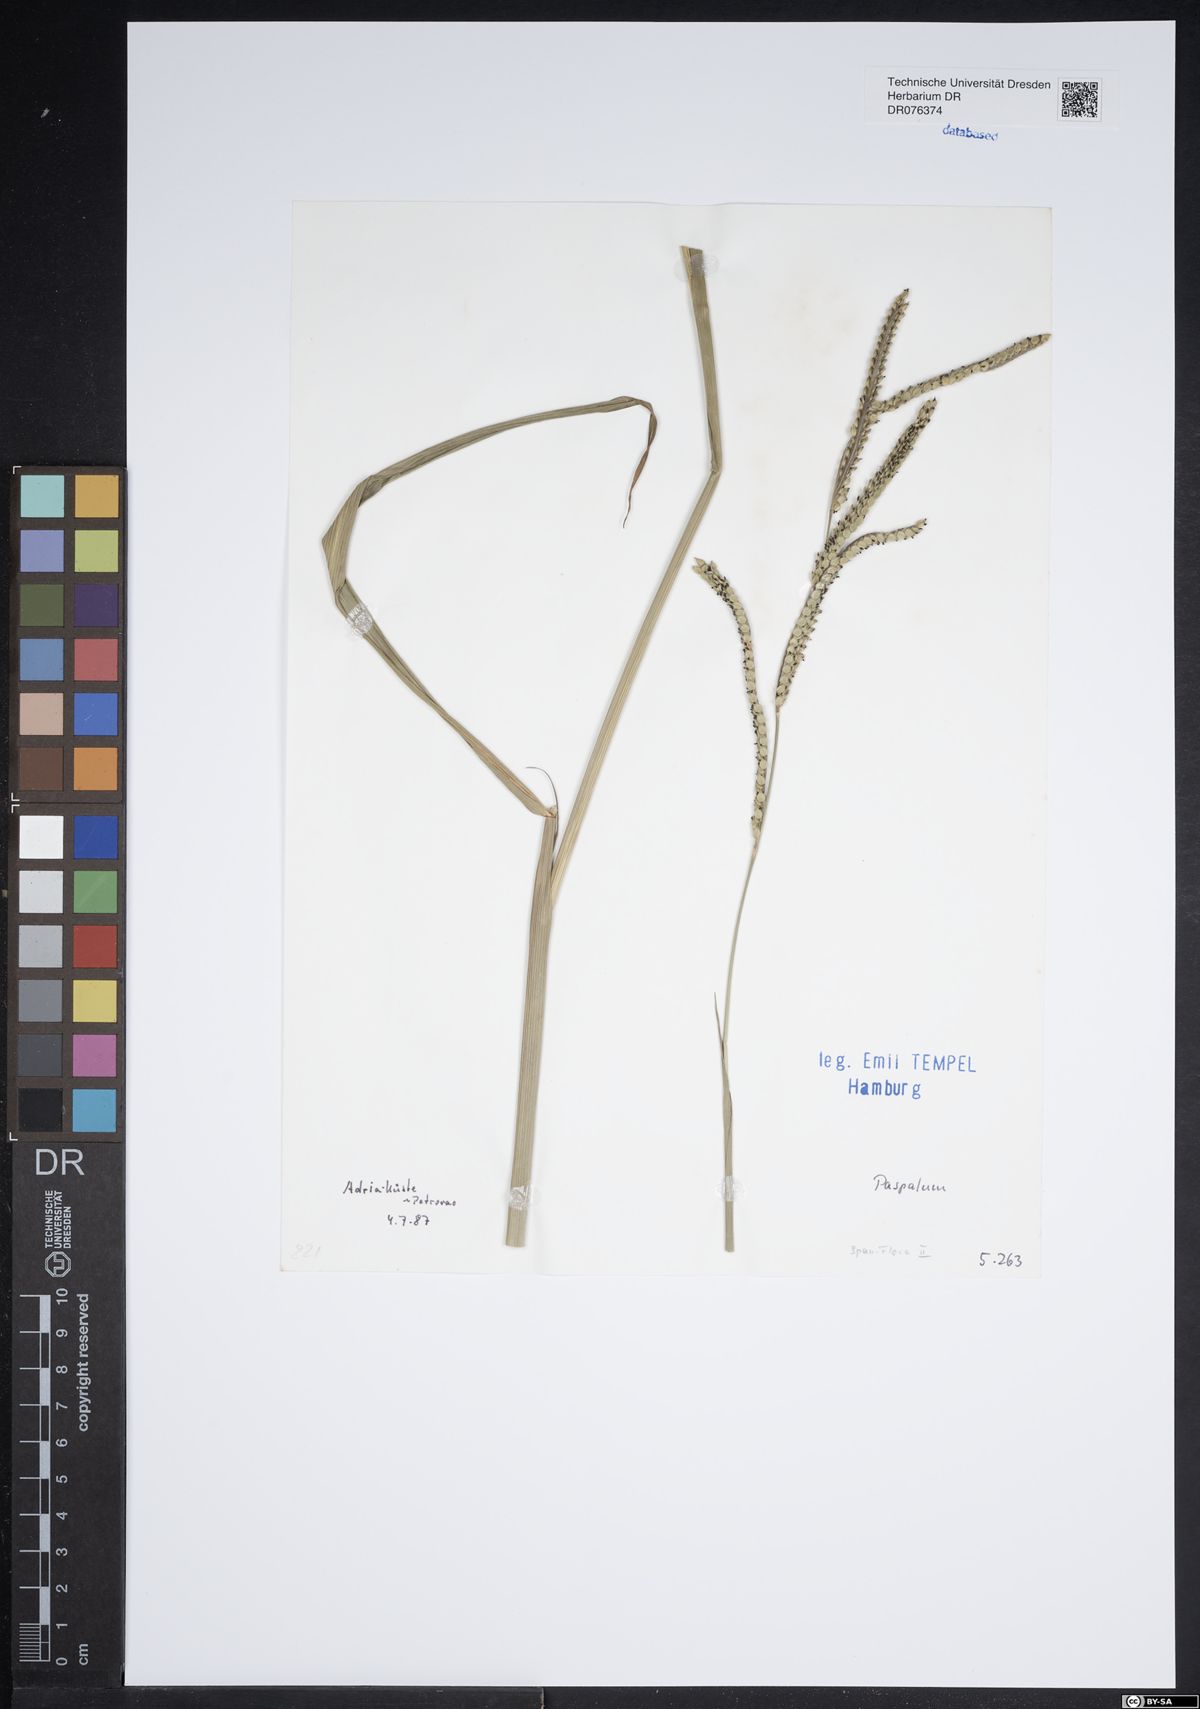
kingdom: Plantae
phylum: Tracheophyta
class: Liliopsida
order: Poales
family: Poaceae
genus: Paspalum
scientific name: Paspalum
